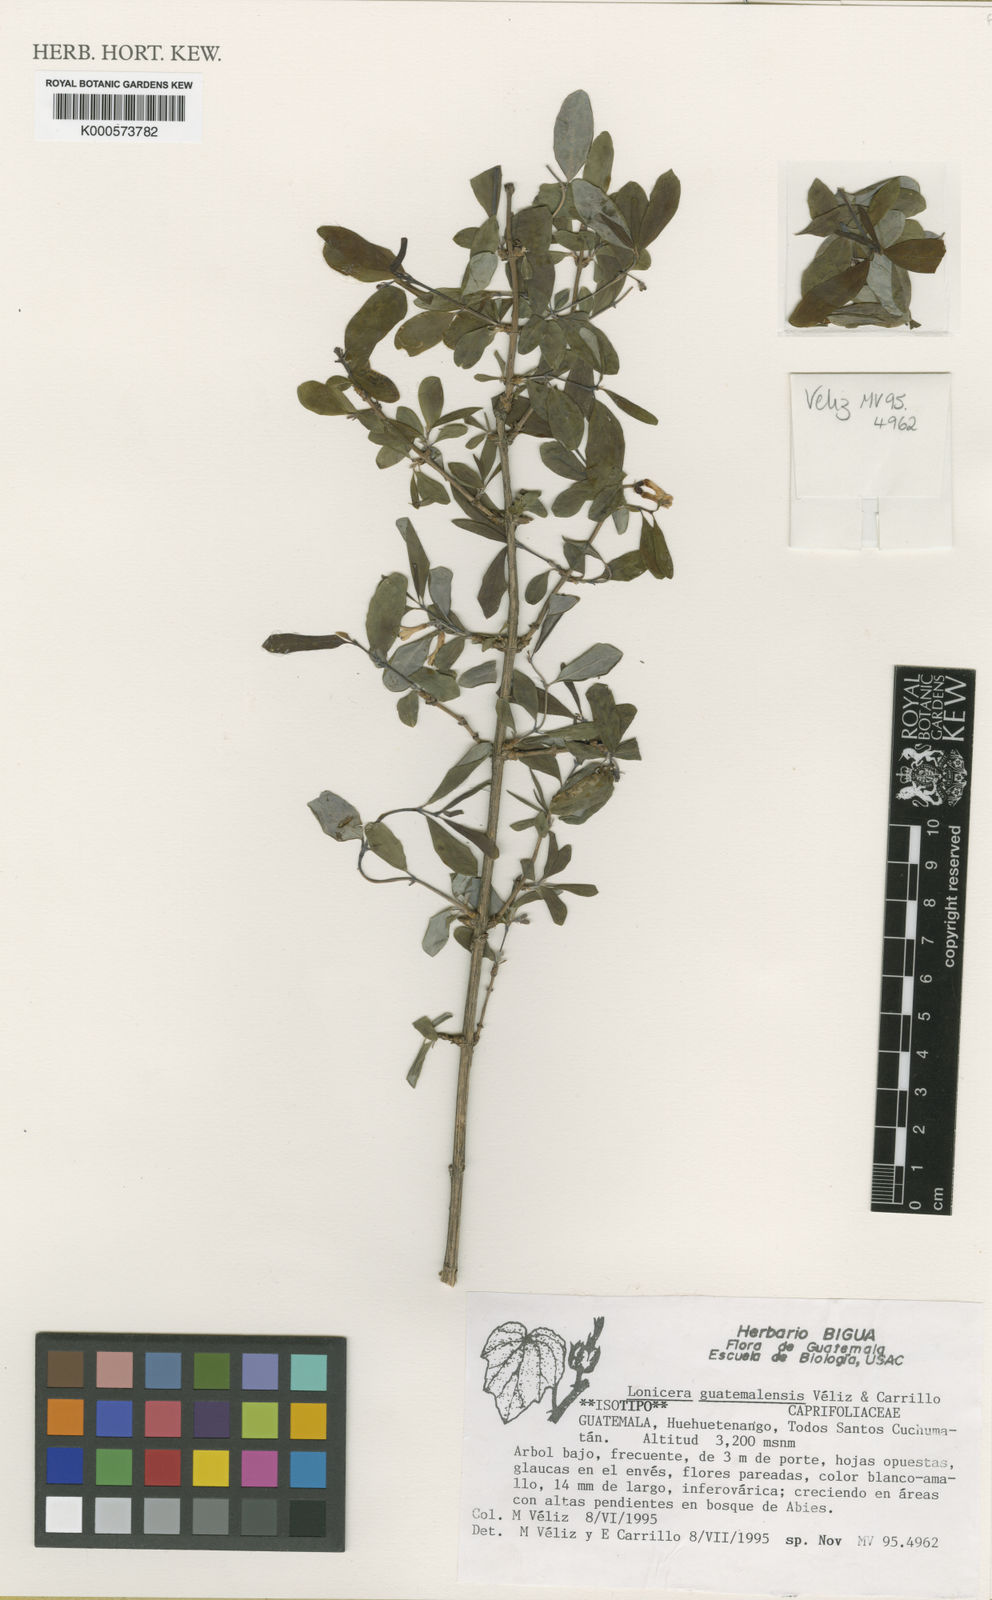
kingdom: Plantae
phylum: Tracheophyta
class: Magnoliopsida
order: Dipsacales
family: Caprifoliaceae
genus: Lonicera
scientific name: Lonicera
